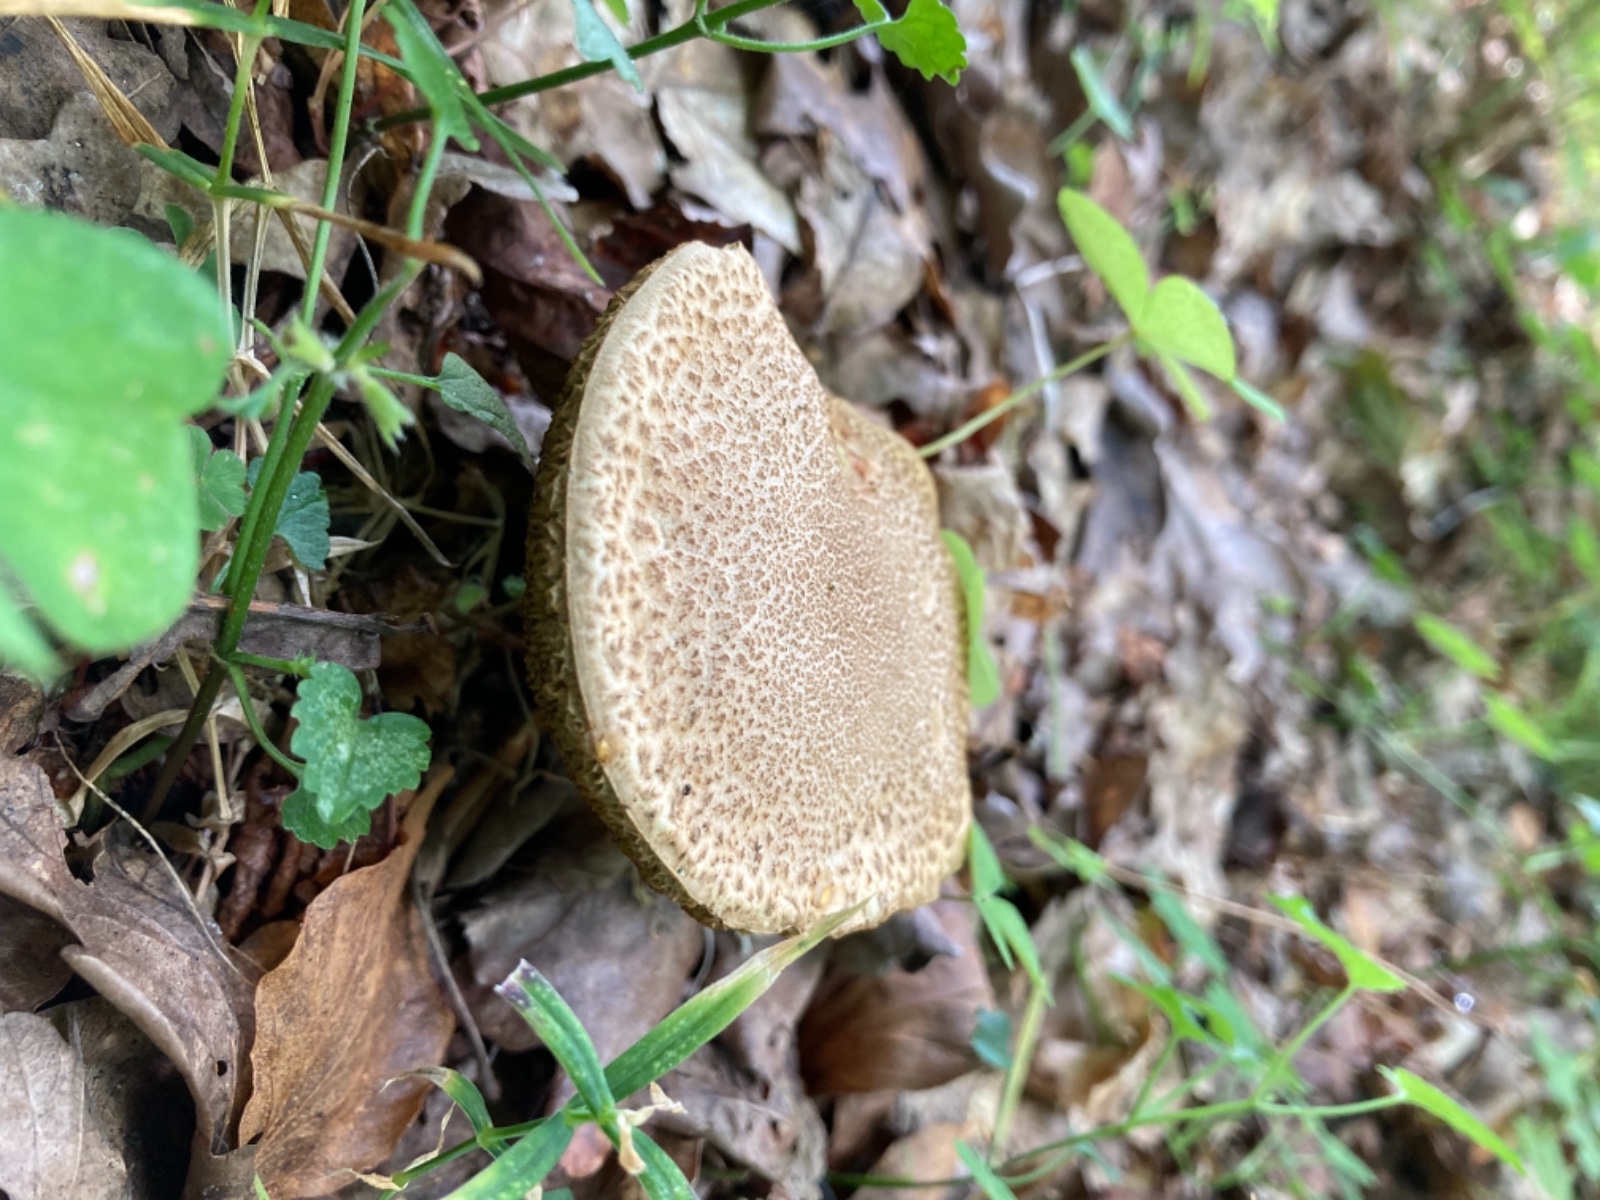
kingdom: Fungi
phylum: Basidiomycota
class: Agaricomycetes
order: Boletales
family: Boletaceae
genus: Xerocomellus
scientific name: Xerocomellus porosporus
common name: hvidsprukken rørhat
